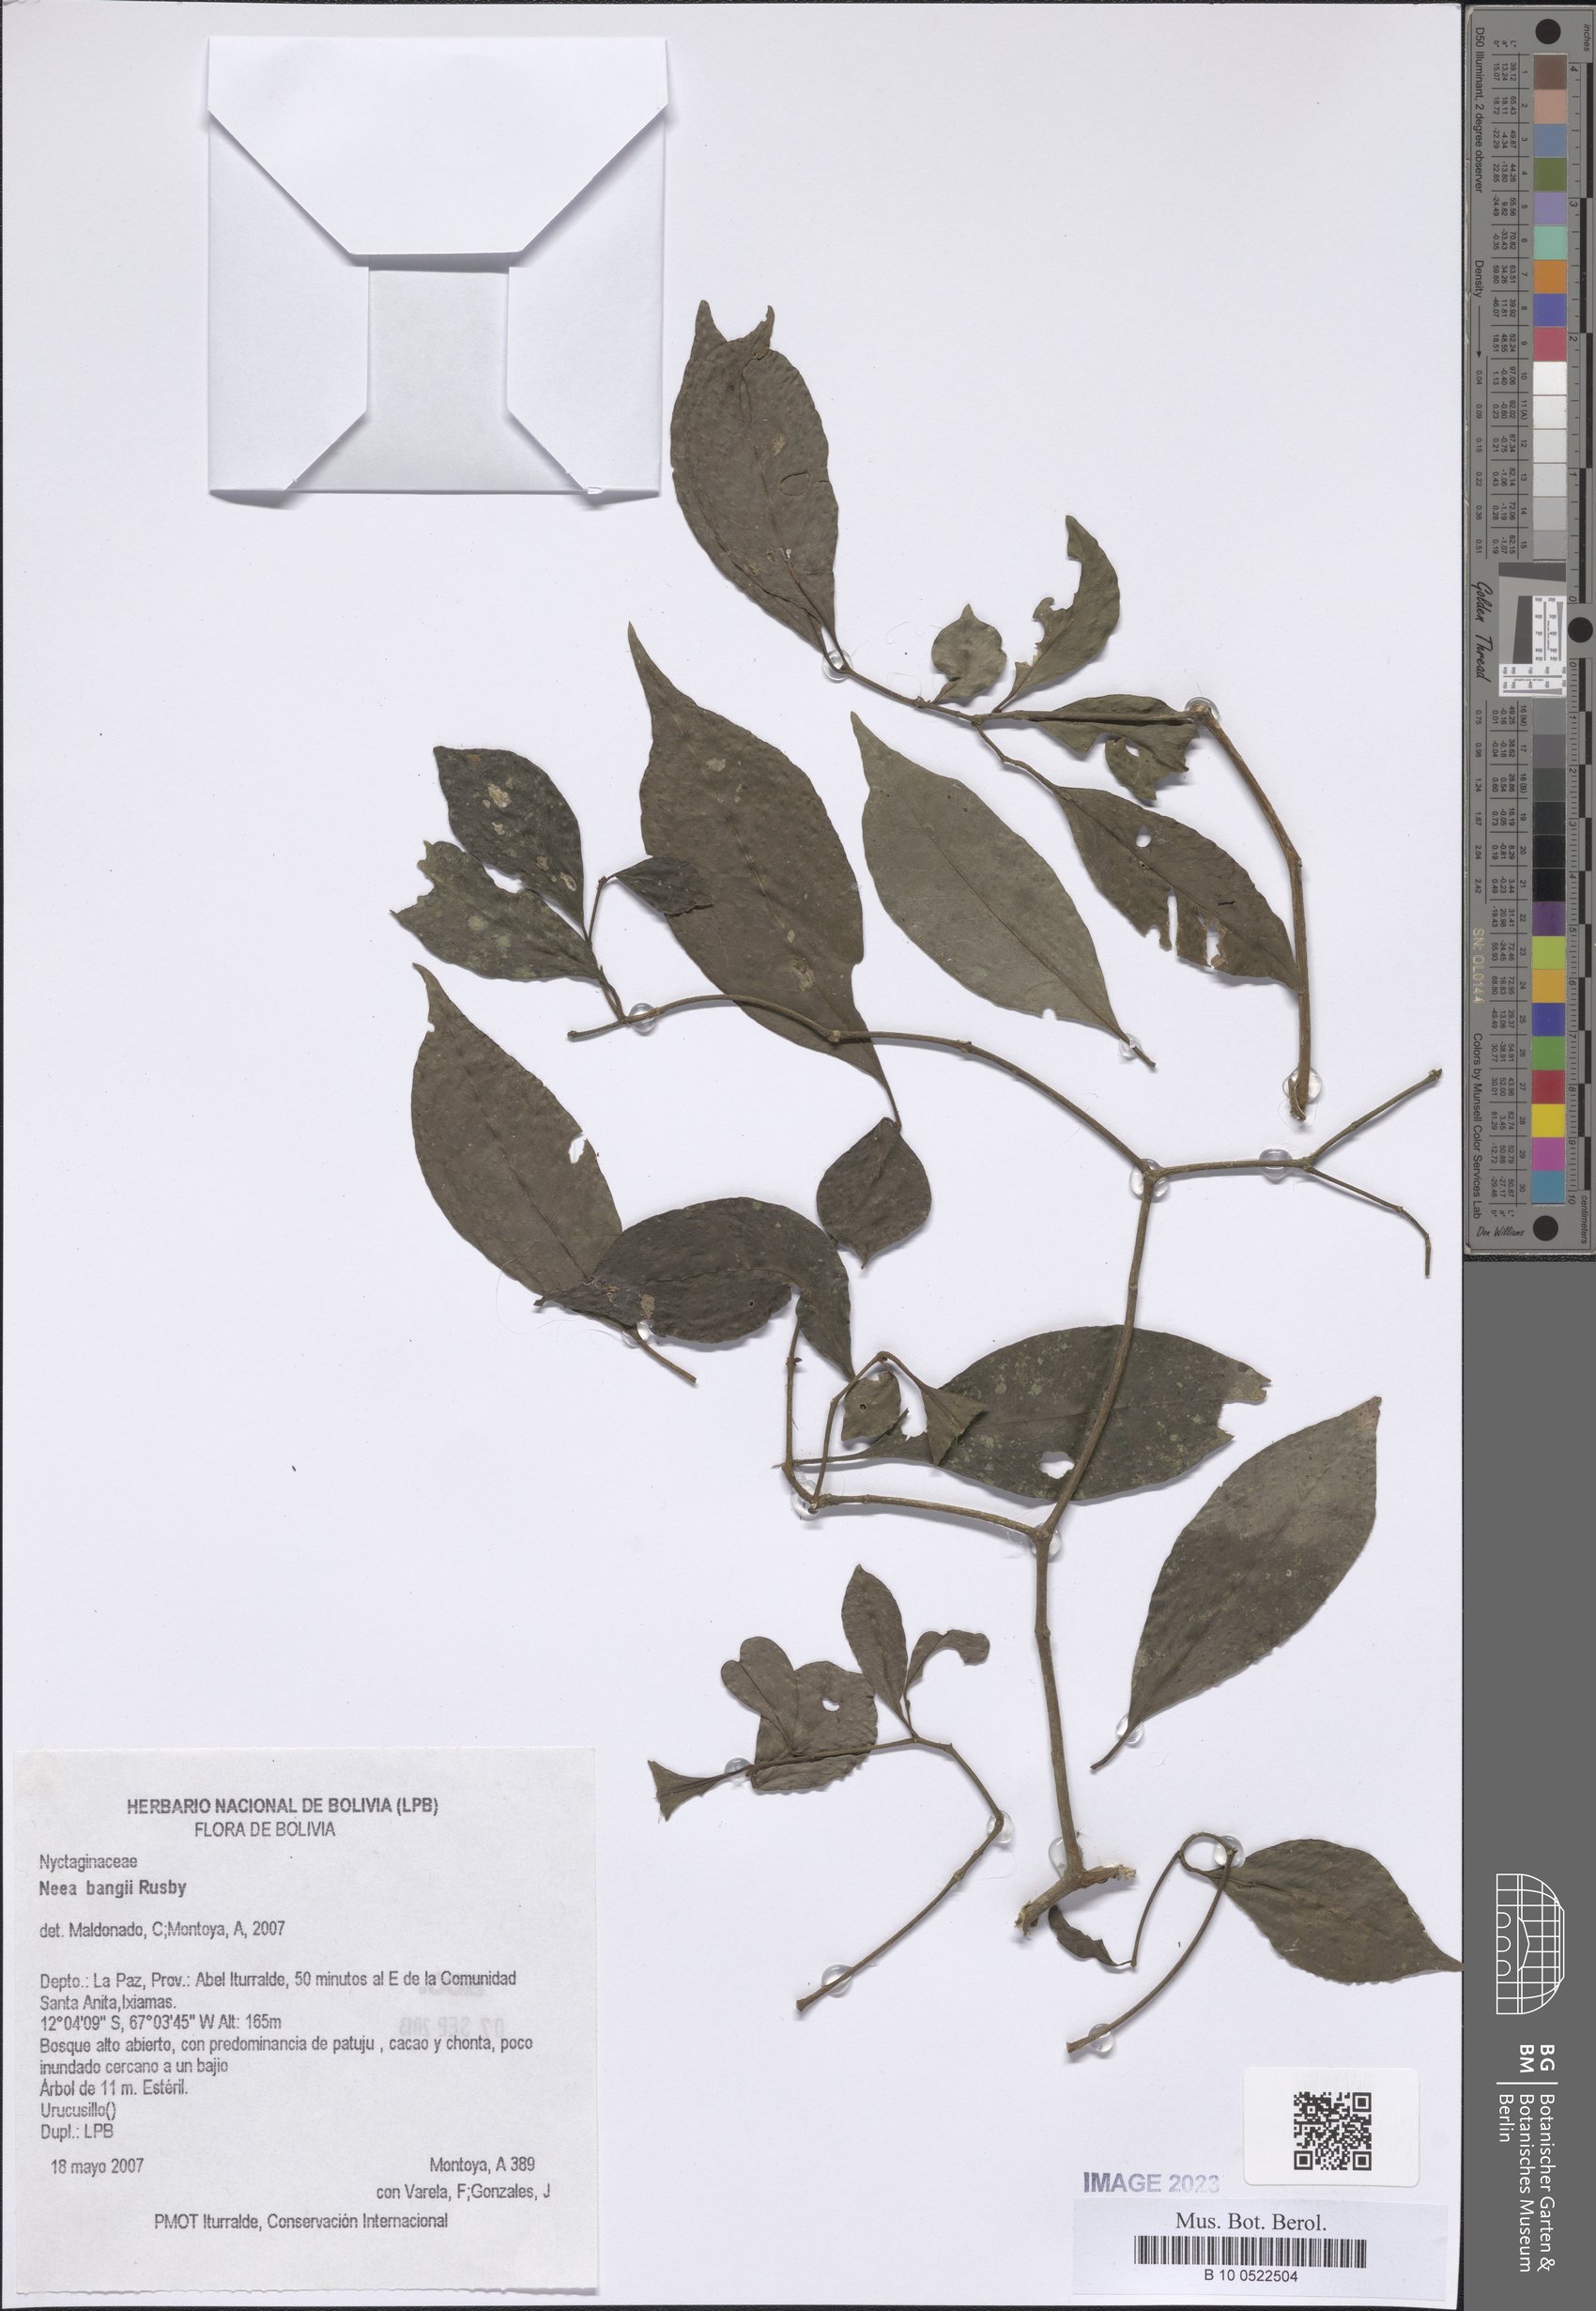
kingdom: Plantae
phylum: Tracheophyta
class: Magnoliopsida
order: Caryophyllales
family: Nyctaginaceae
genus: Neea
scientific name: Neea bangii
